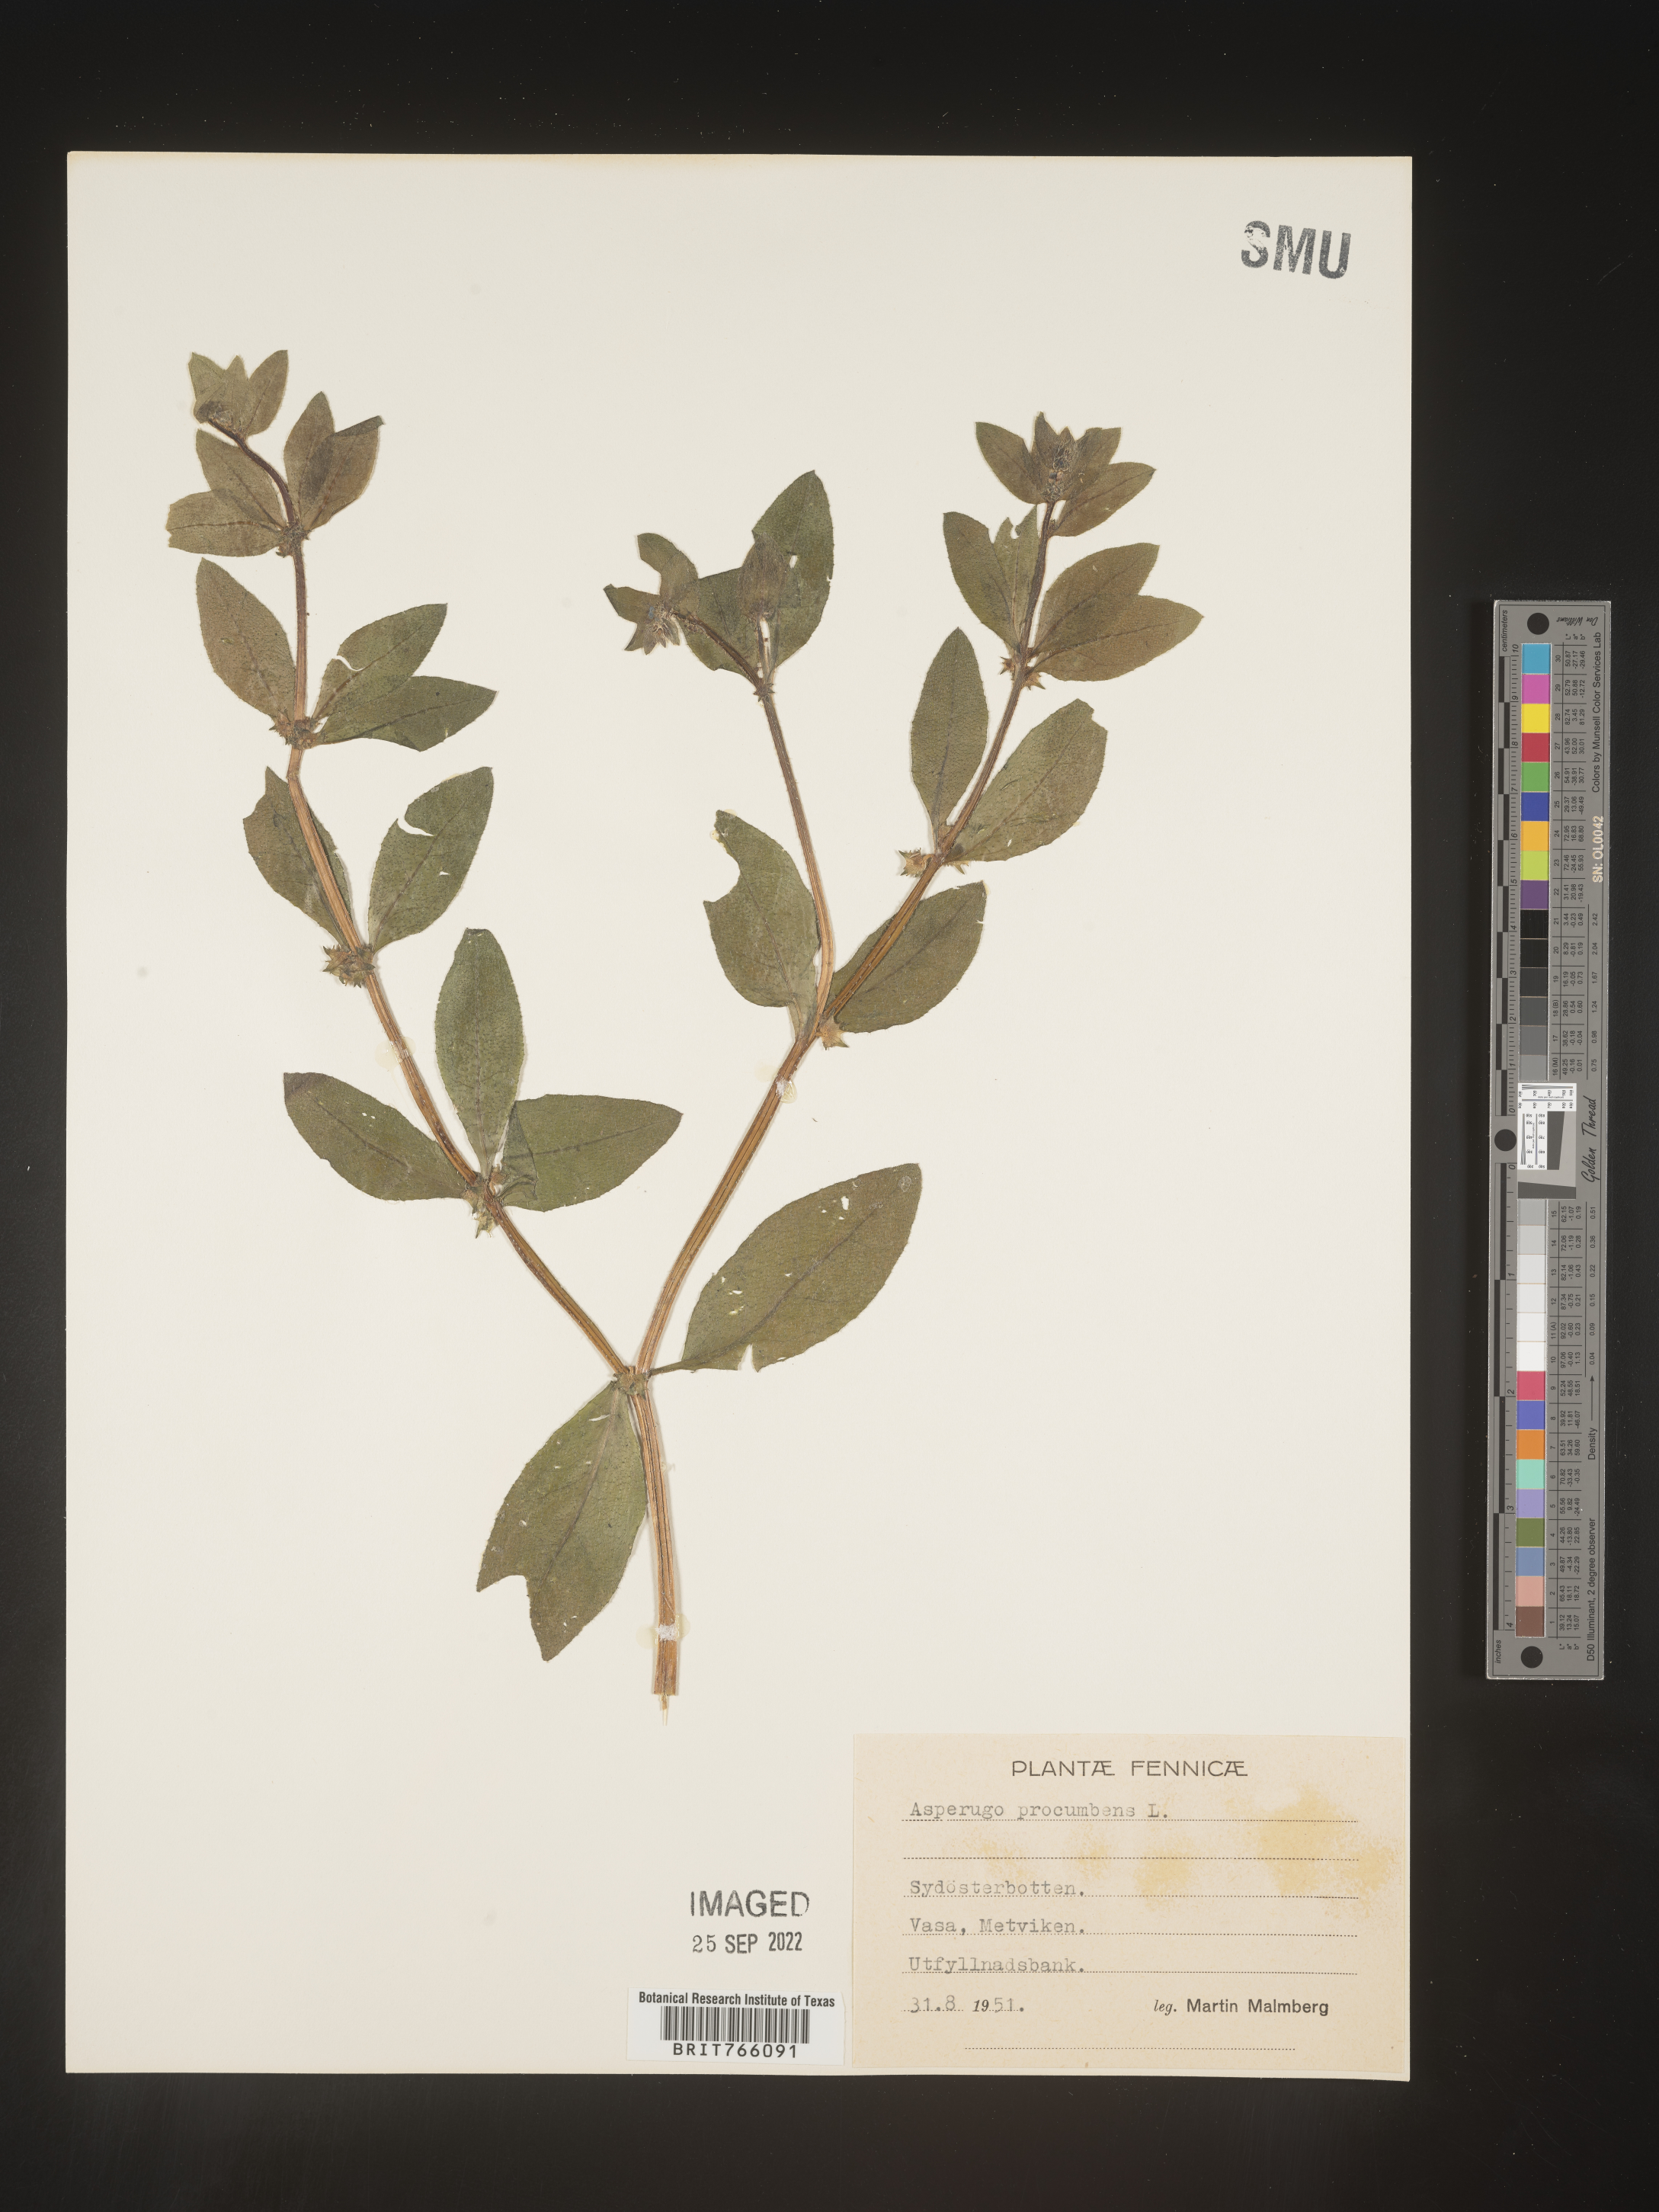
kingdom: Plantae
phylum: Tracheophyta
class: Magnoliopsida
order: Boraginales
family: Boraginaceae
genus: Asperugo
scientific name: Asperugo
